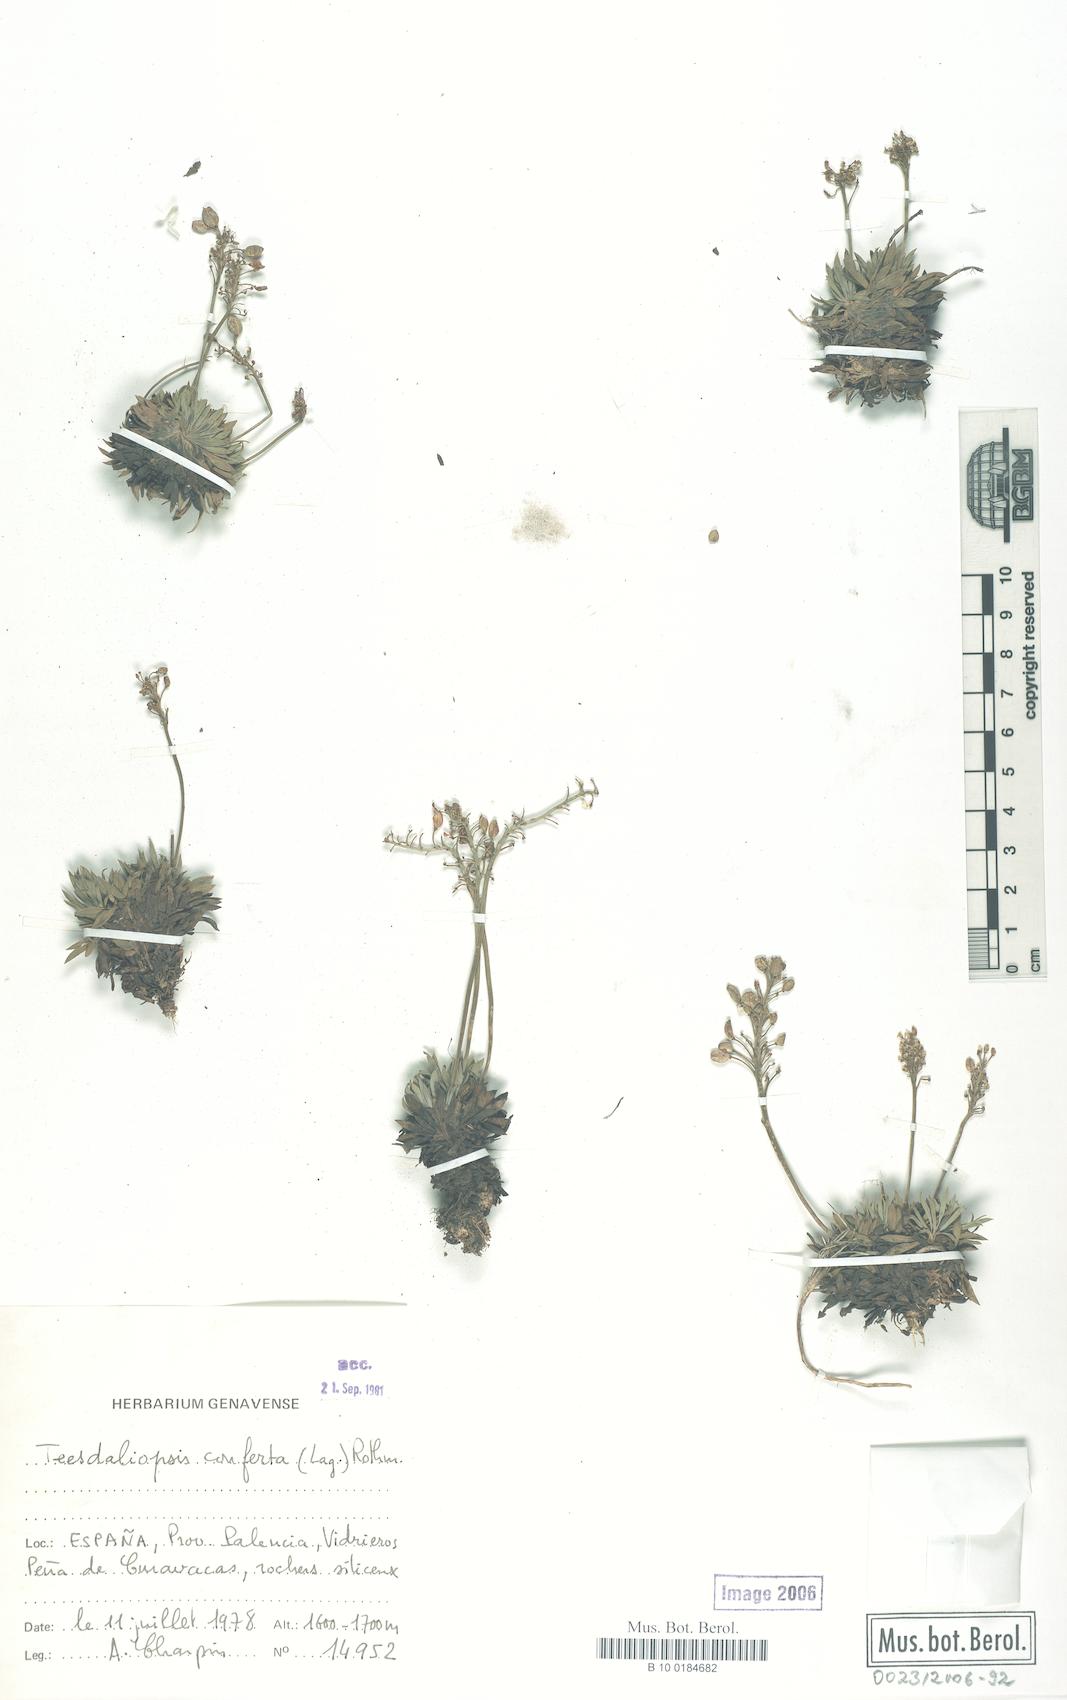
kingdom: Plantae
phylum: Tracheophyta
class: Magnoliopsida
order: Brassicales
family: Brassicaceae
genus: Teesdalia
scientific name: Teesdalia conferta
